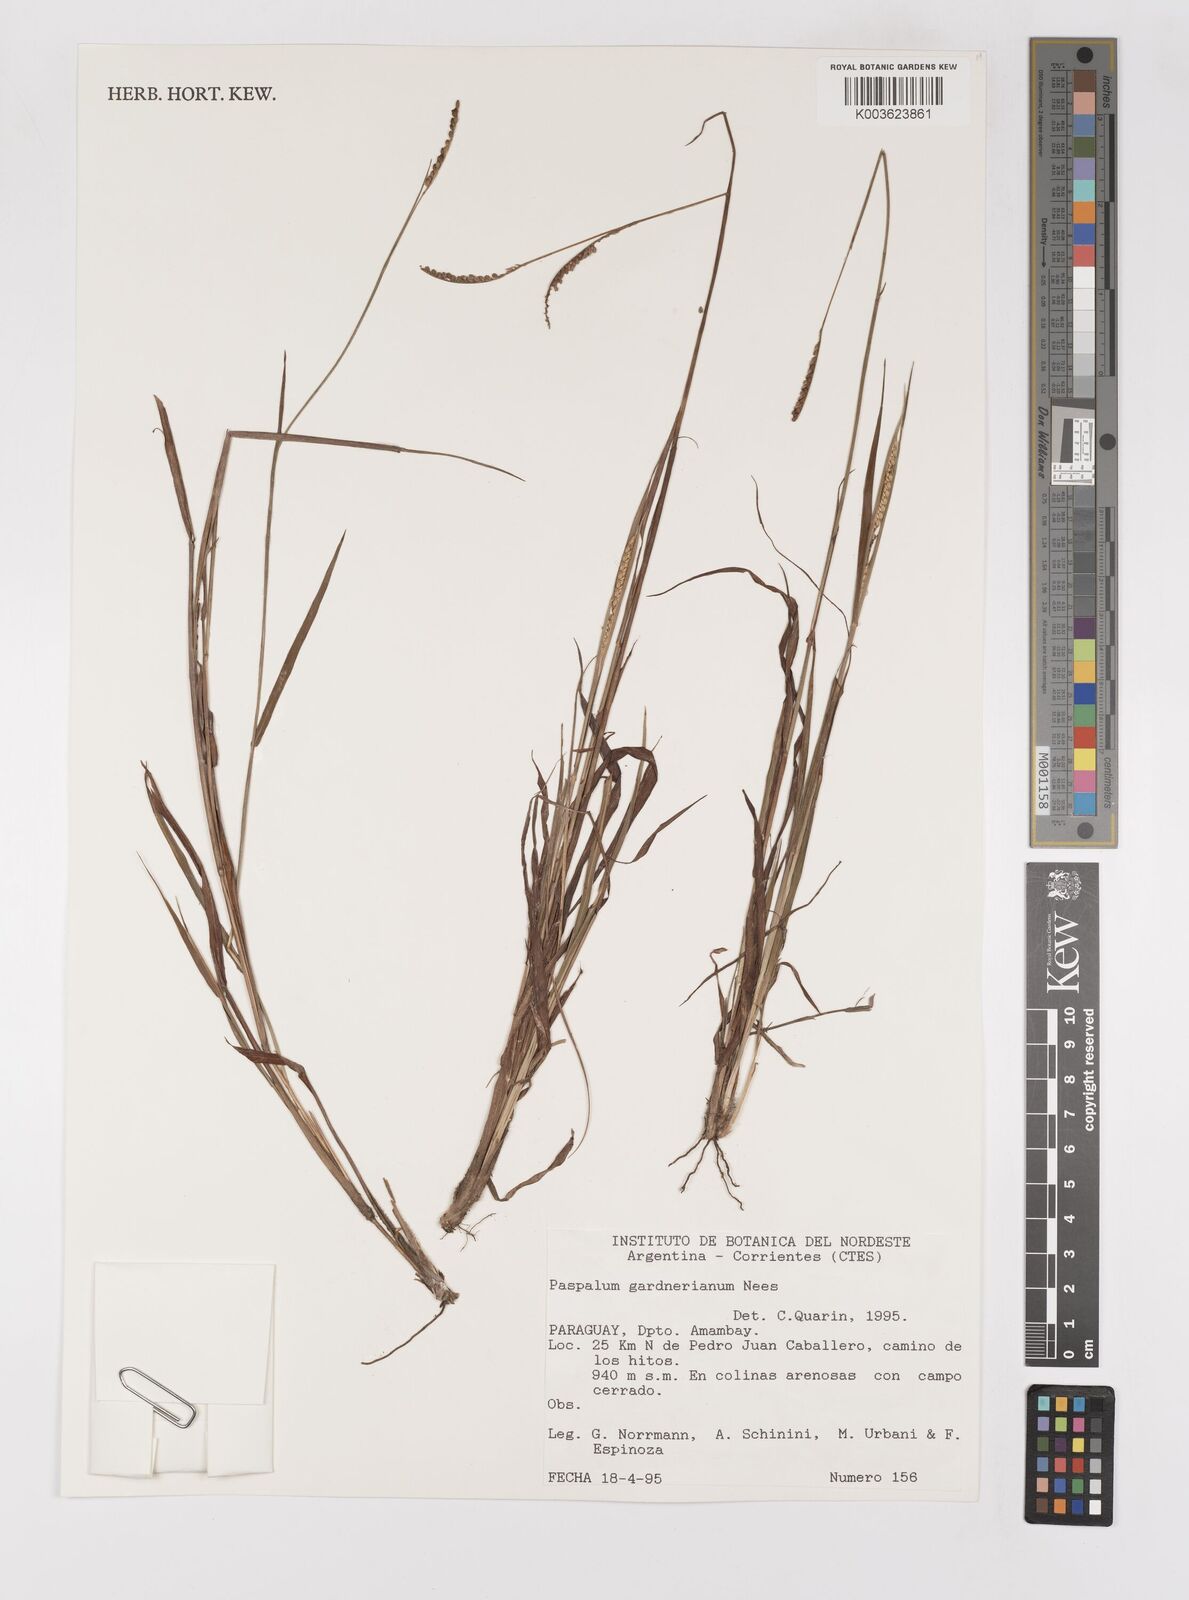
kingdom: Plantae
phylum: Tracheophyta
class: Liliopsida
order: Poales
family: Poaceae
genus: Paspalum
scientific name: Paspalum gardnerianum
